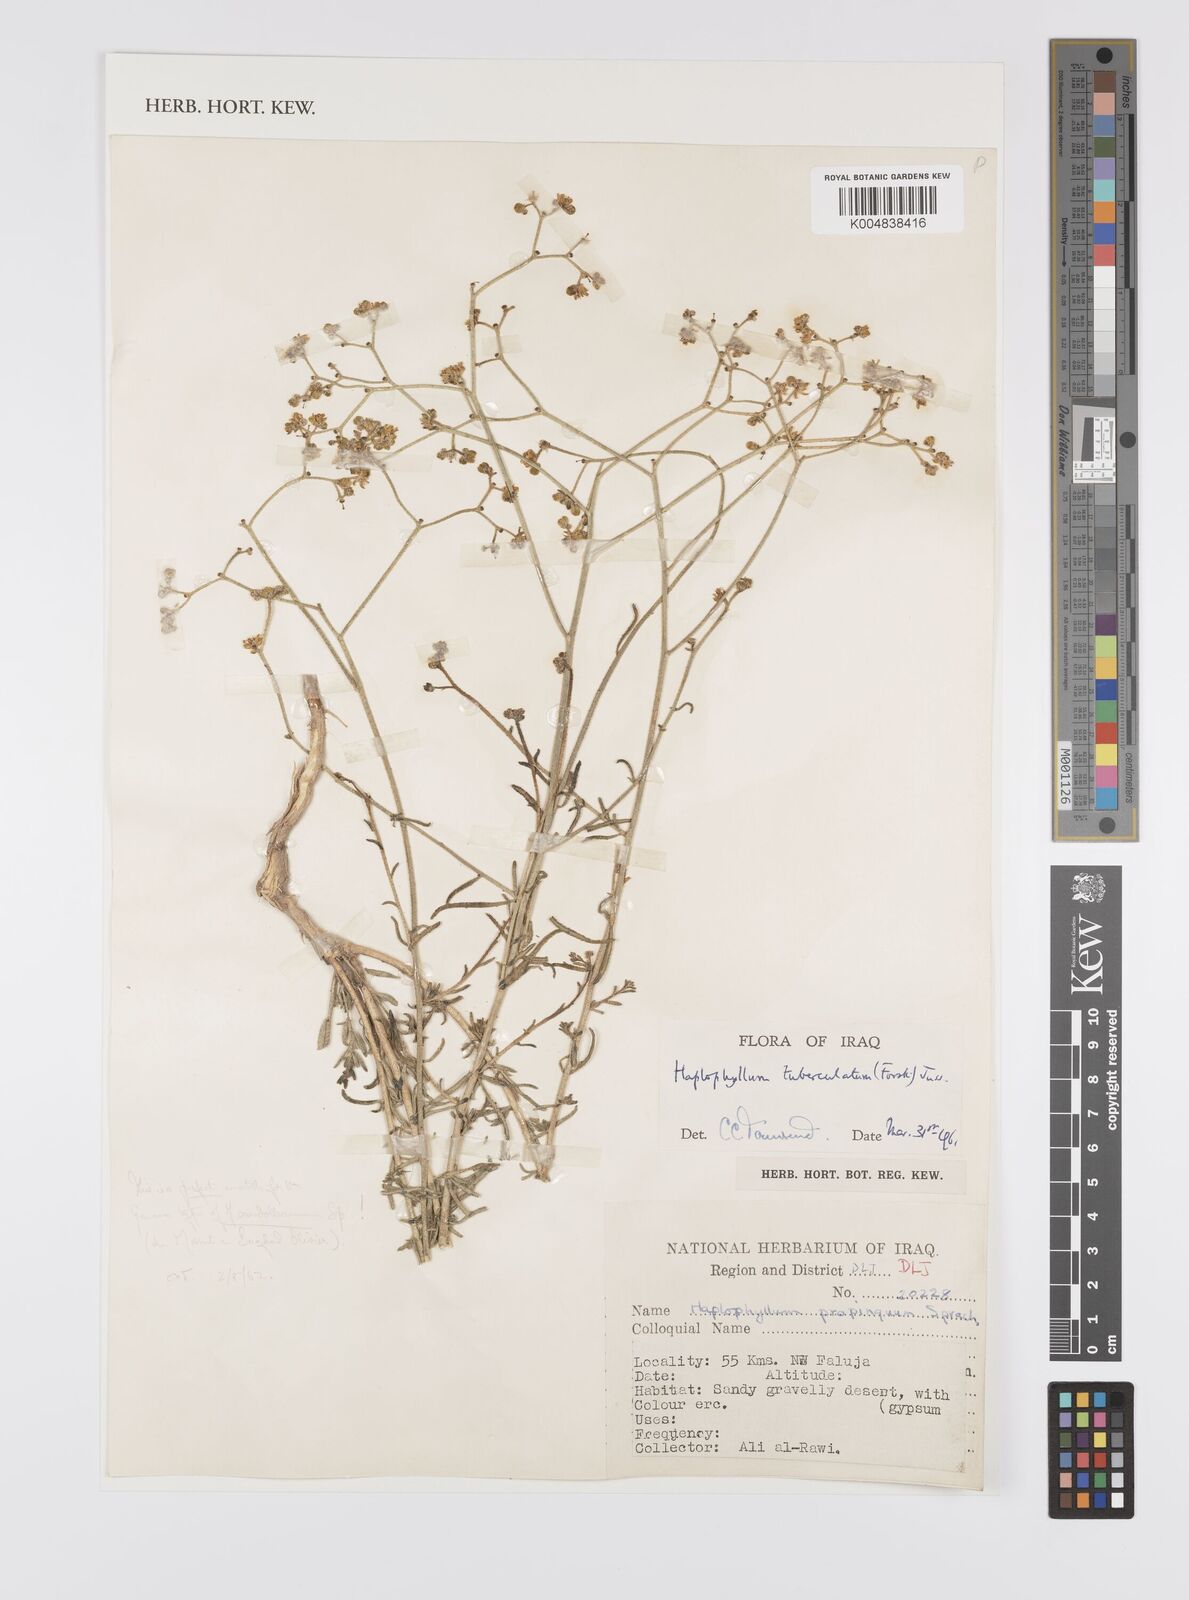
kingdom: Plantae
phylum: Tracheophyta
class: Magnoliopsida
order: Sapindales
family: Rutaceae
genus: Haplophyllum
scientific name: Haplophyllum tuberculatum
